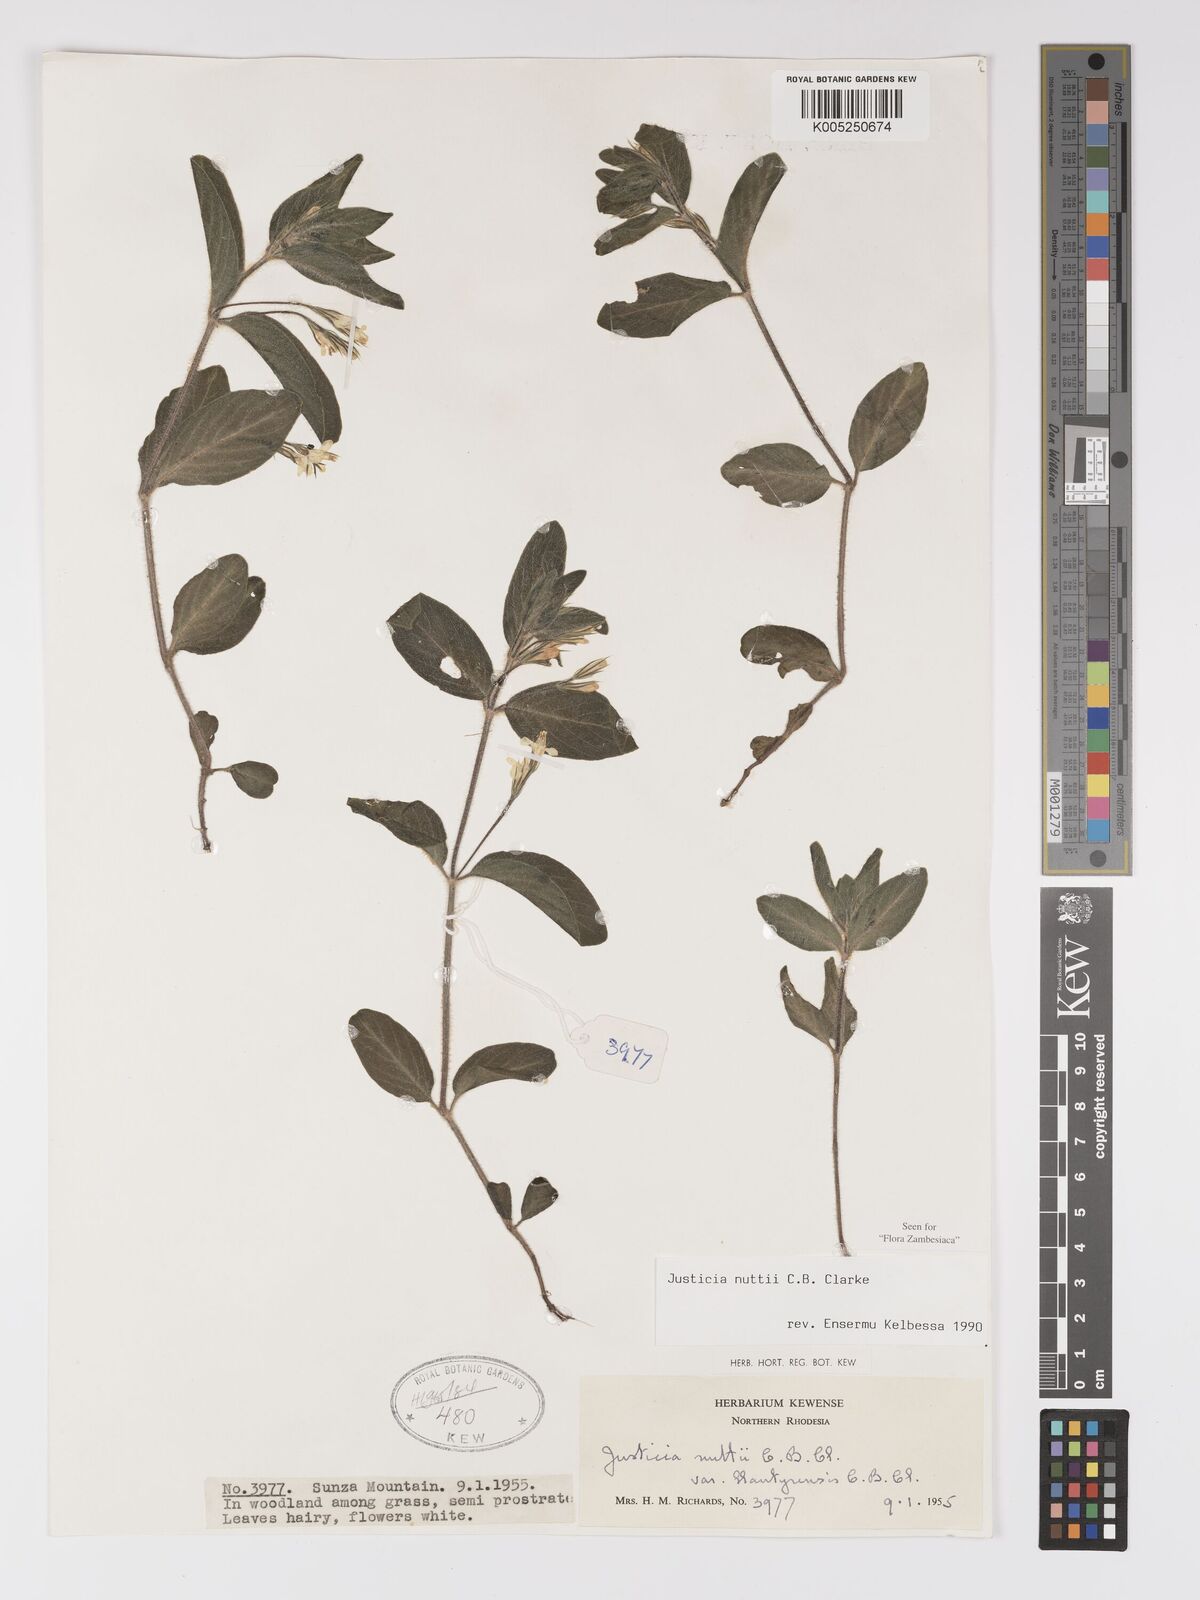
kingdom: Plantae
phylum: Tracheophyta
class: Magnoliopsida
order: Lamiales
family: Acanthaceae
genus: Justicia
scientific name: Justicia nuttii
